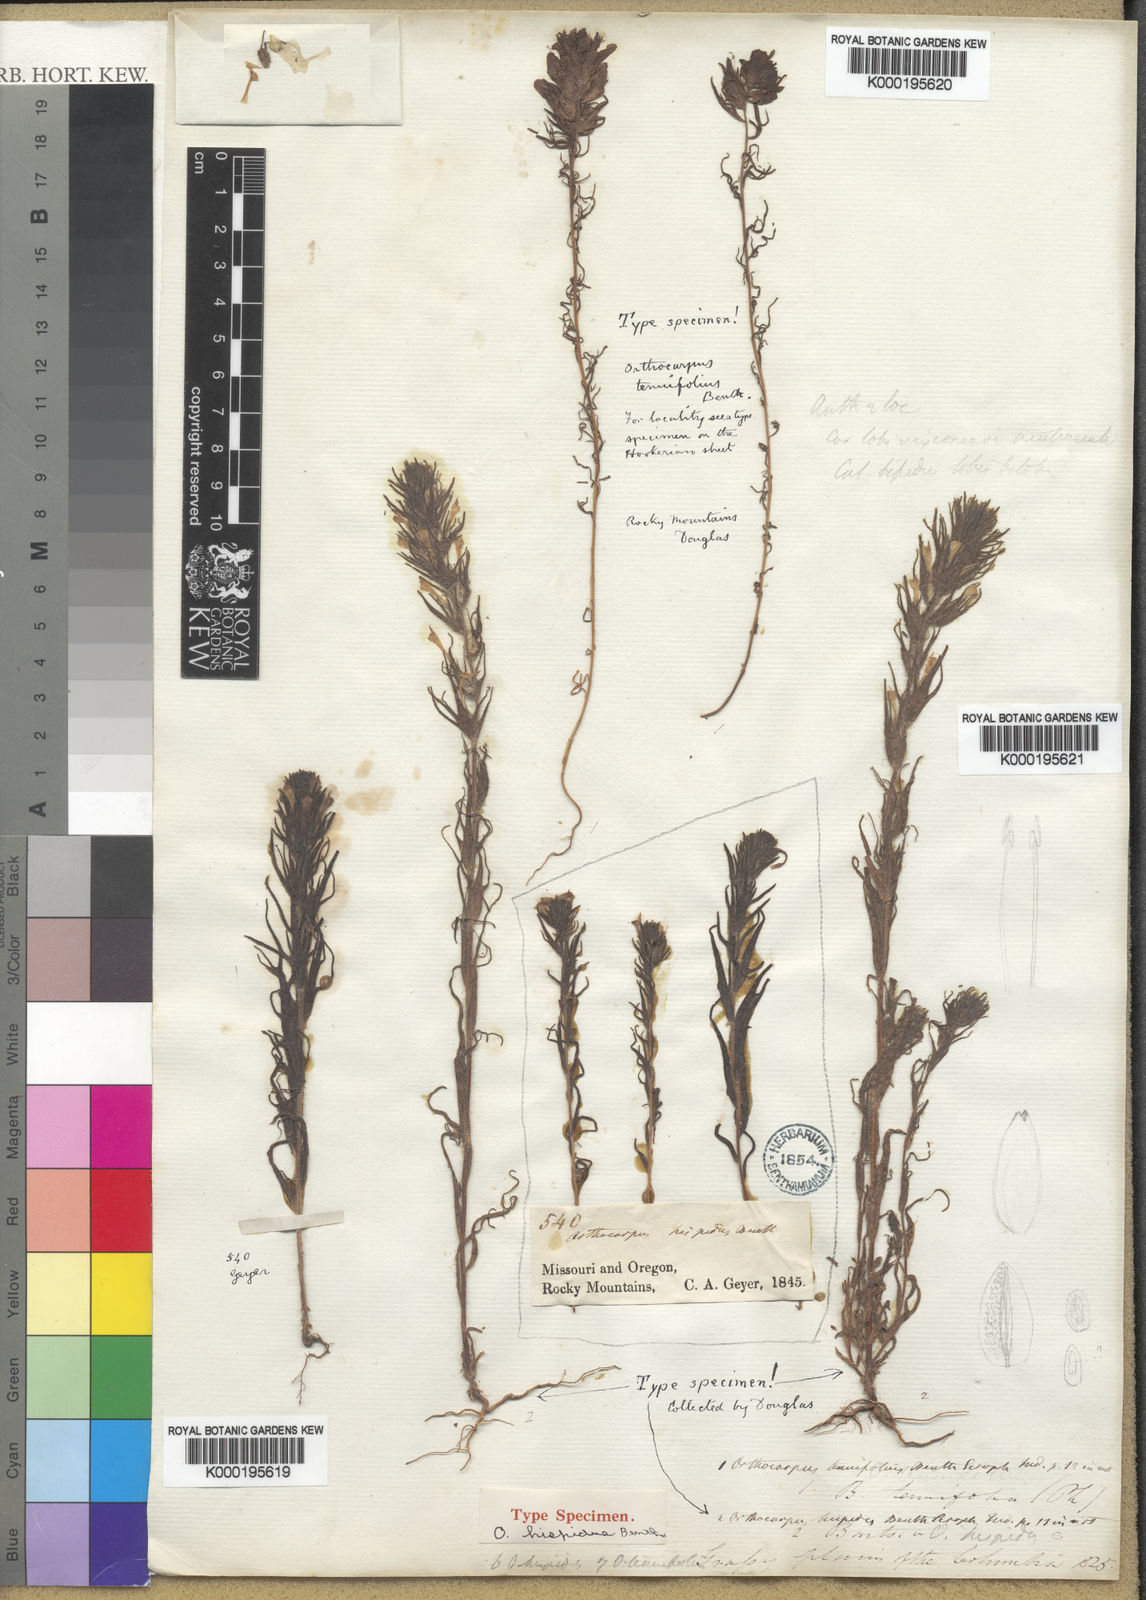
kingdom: Plantae
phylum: Tracheophyta
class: Magnoliopsida
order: Lamiales
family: Orobanchaceae
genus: Castilleja
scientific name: Castilleja tenuis
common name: Hairy indian paintbrush
